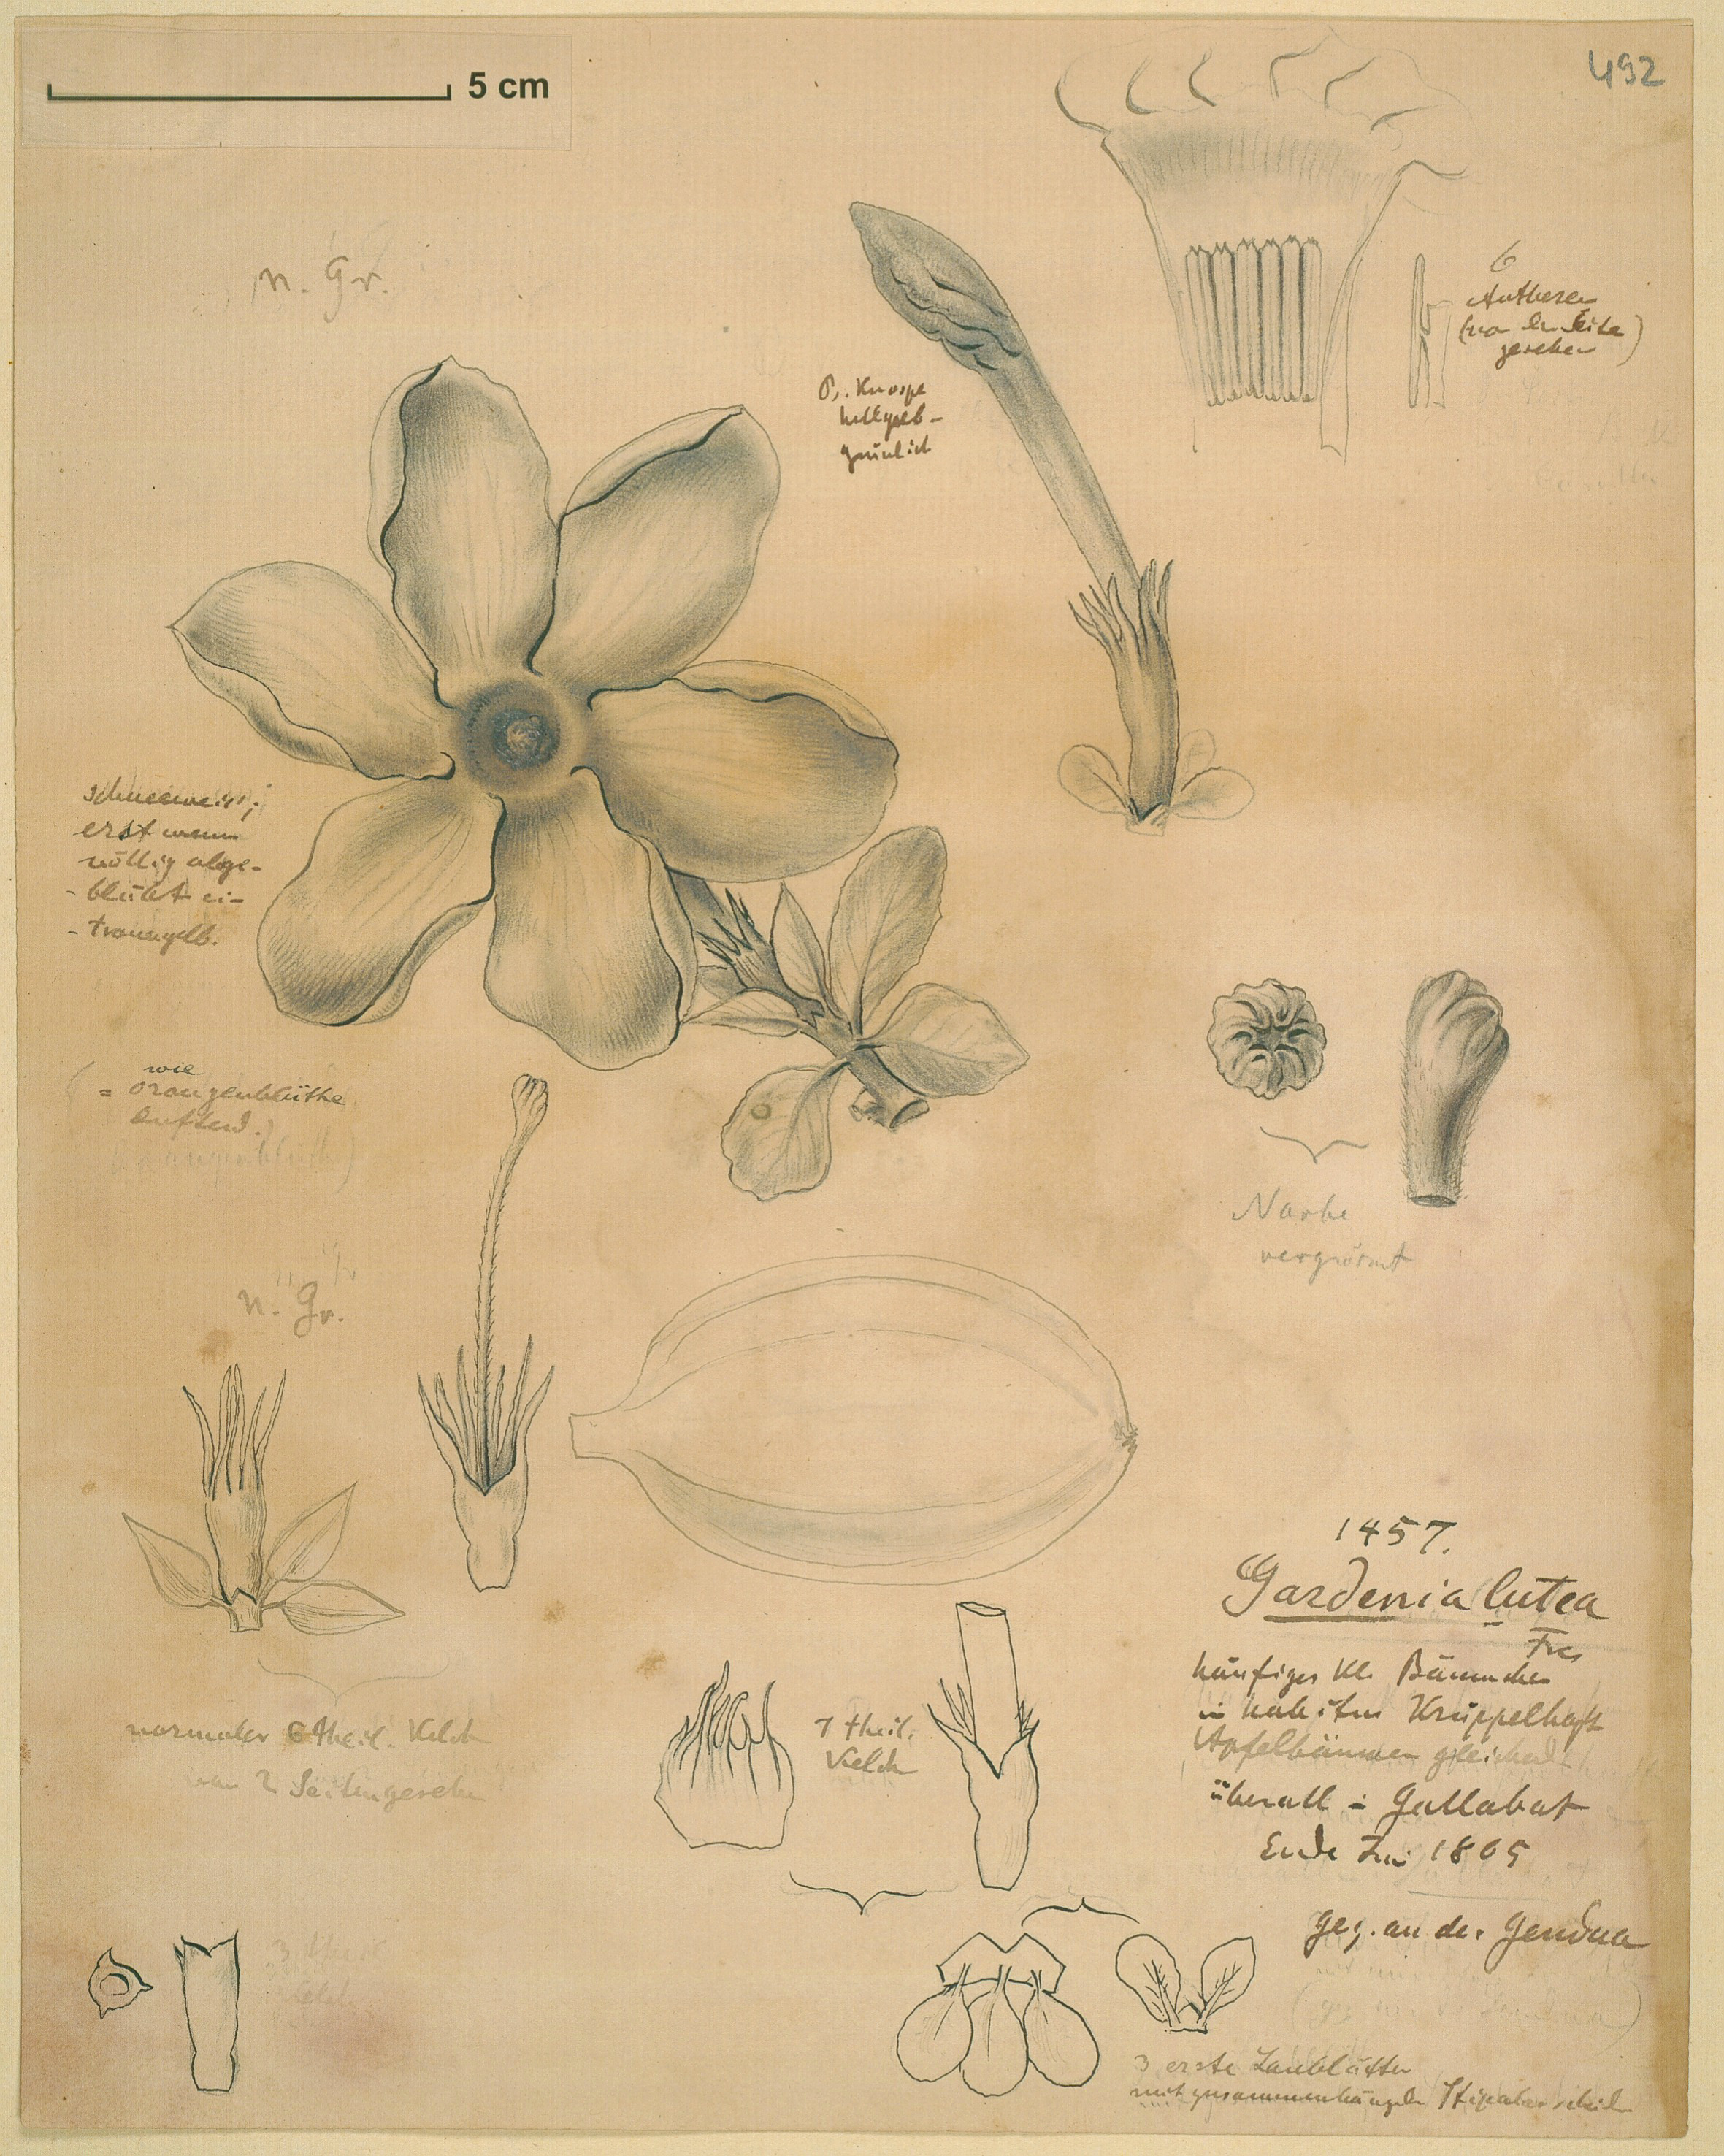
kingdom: Plantae
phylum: Tracheophyta
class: Magnoliopsida
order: Gentianales
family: Rubiaceae
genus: Gardenia
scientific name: Gardenia ternifolia
